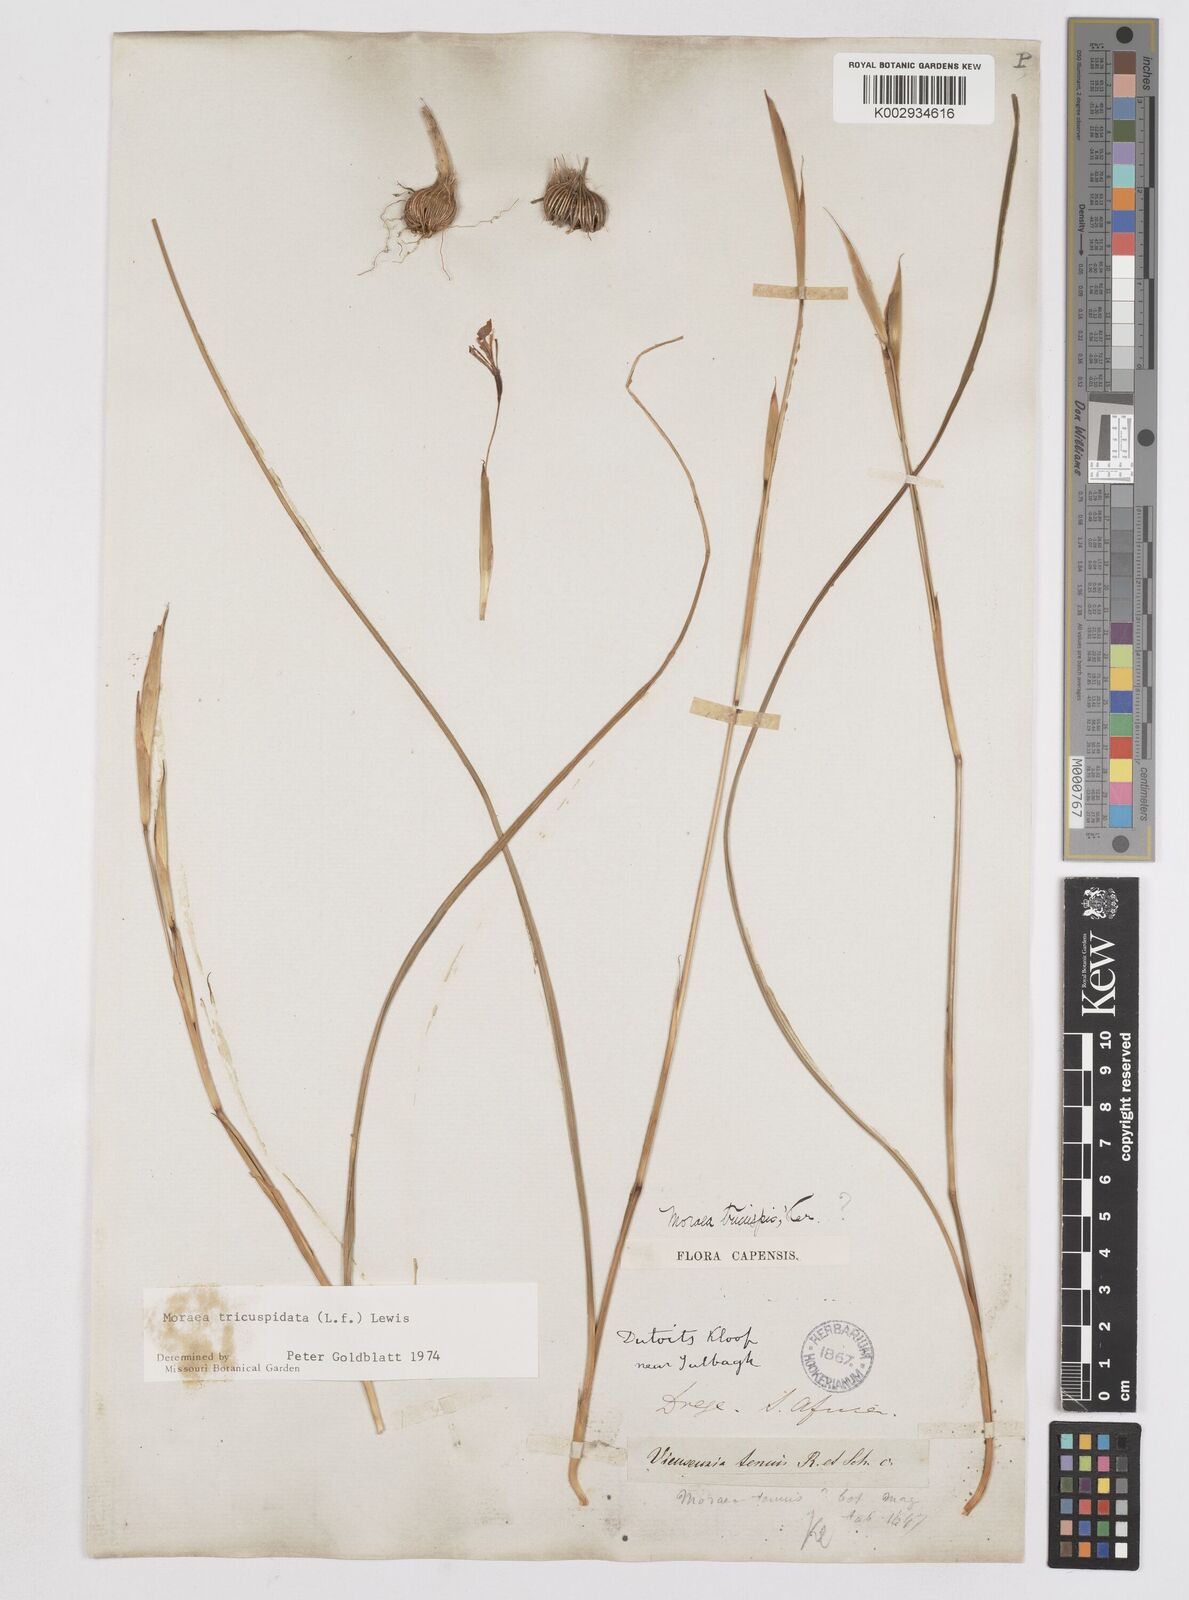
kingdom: Plantae
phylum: Tracheophyta
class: Liliopsida
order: Asparagales
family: Iridaceae
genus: Moraea
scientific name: Moraea tricuspidata
